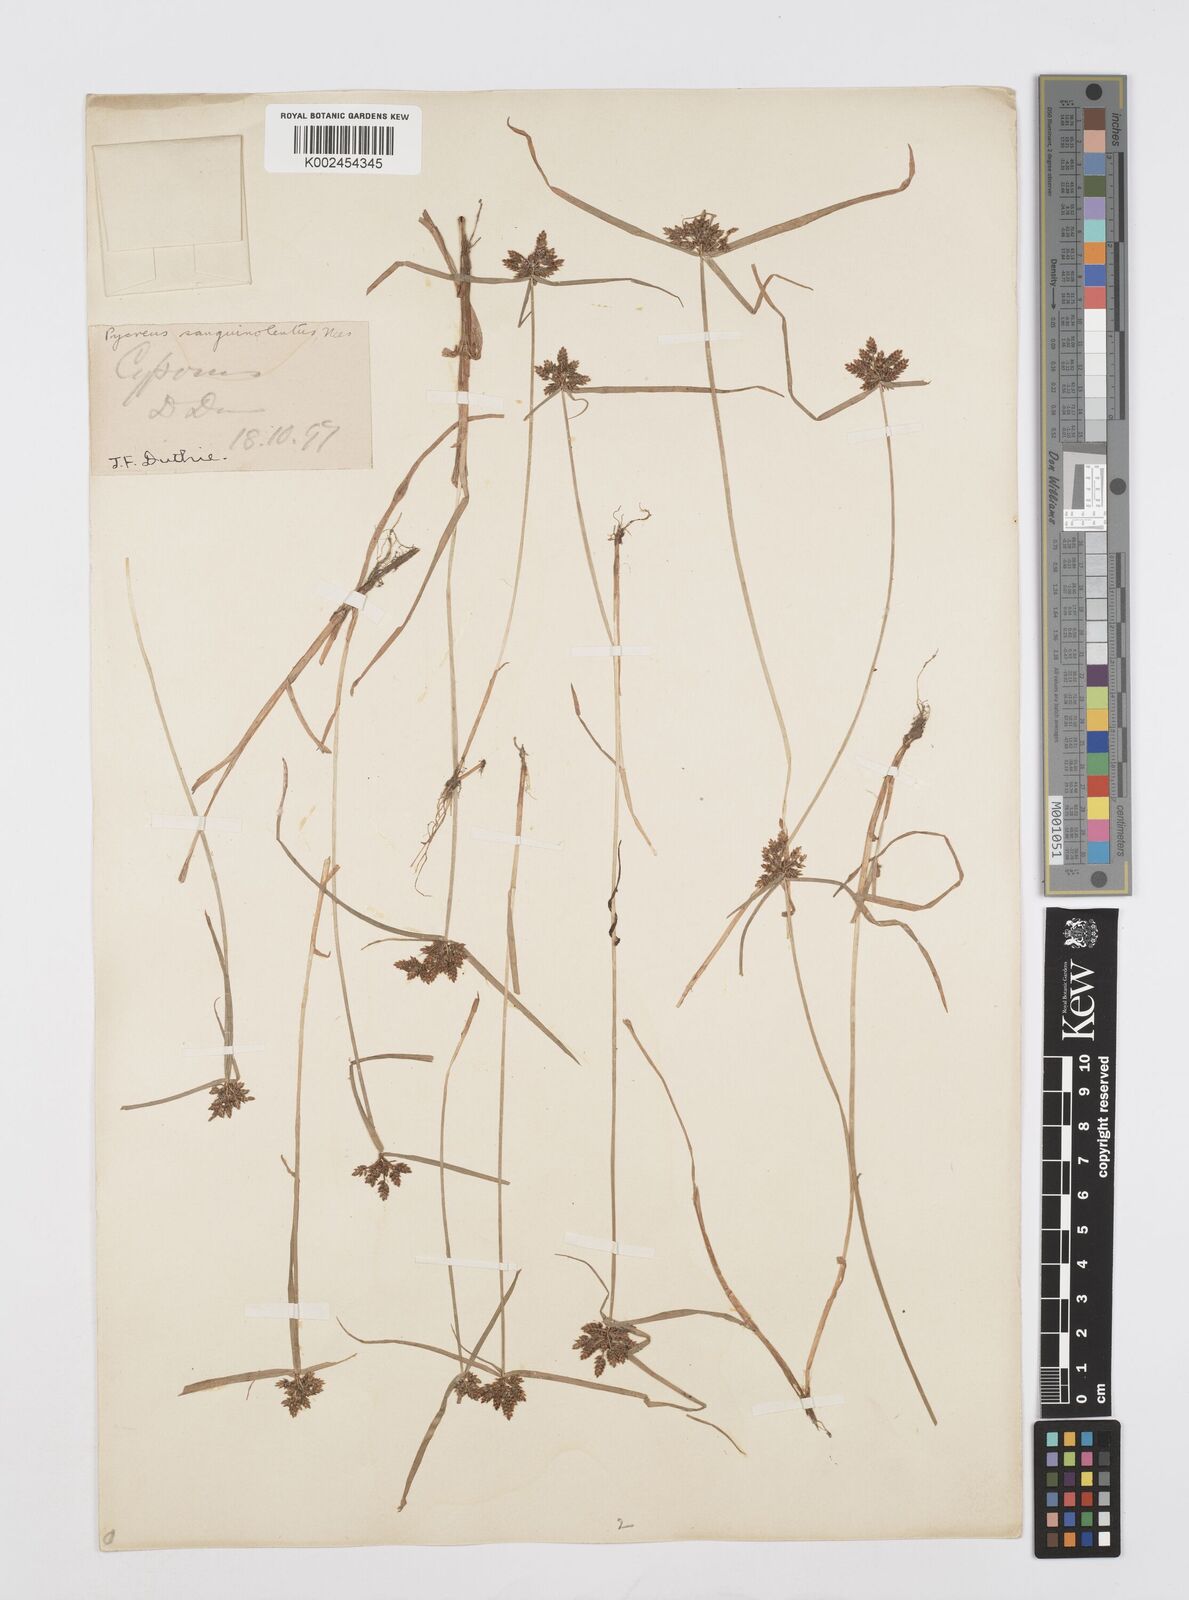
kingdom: Plantae
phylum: Tracheophyta
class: Liliopsida
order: Poales
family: Cyperaceae
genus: Cyperus
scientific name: Cyperus sanguinolentus
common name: Purpleglume flatsedge
